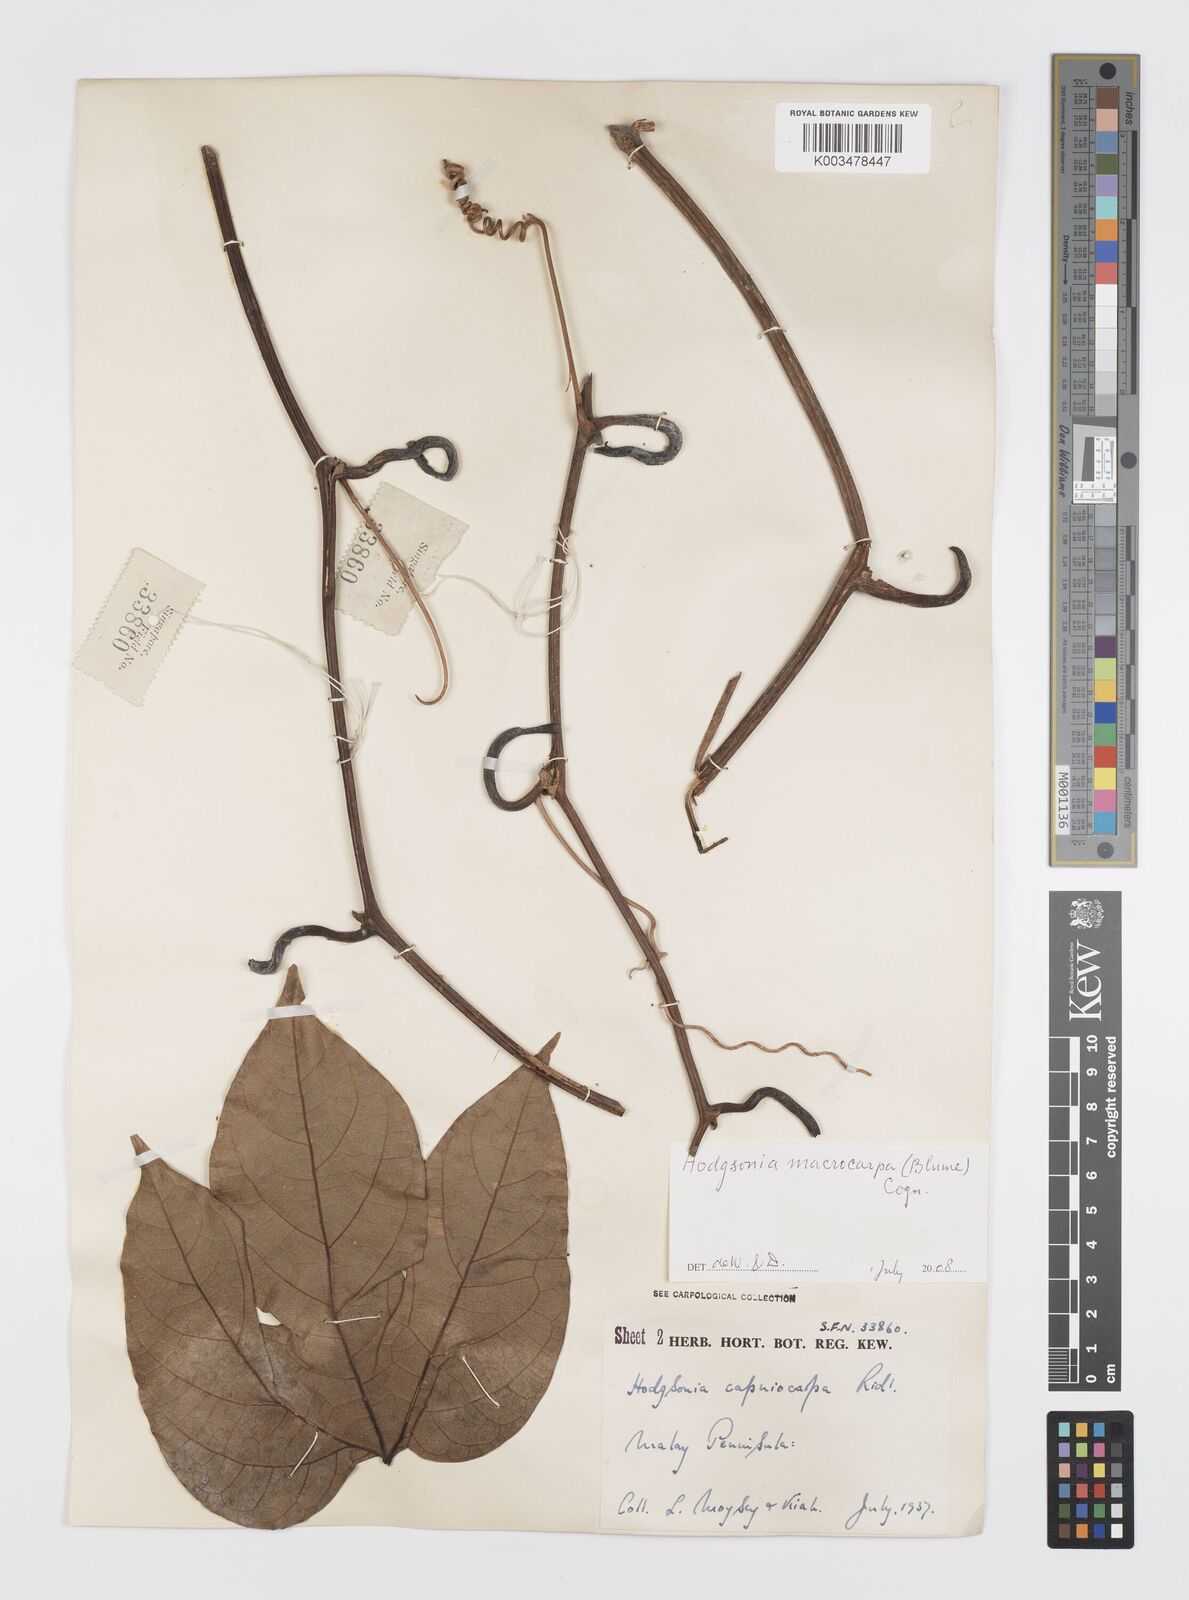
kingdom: Plantae
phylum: Tracheophyta
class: Magnoliopsida
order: Cucurbitales
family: Cucurbitaceae
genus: Hodgsonia
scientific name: Hodgsonia macrocarpa
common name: Chinese lardfruit
